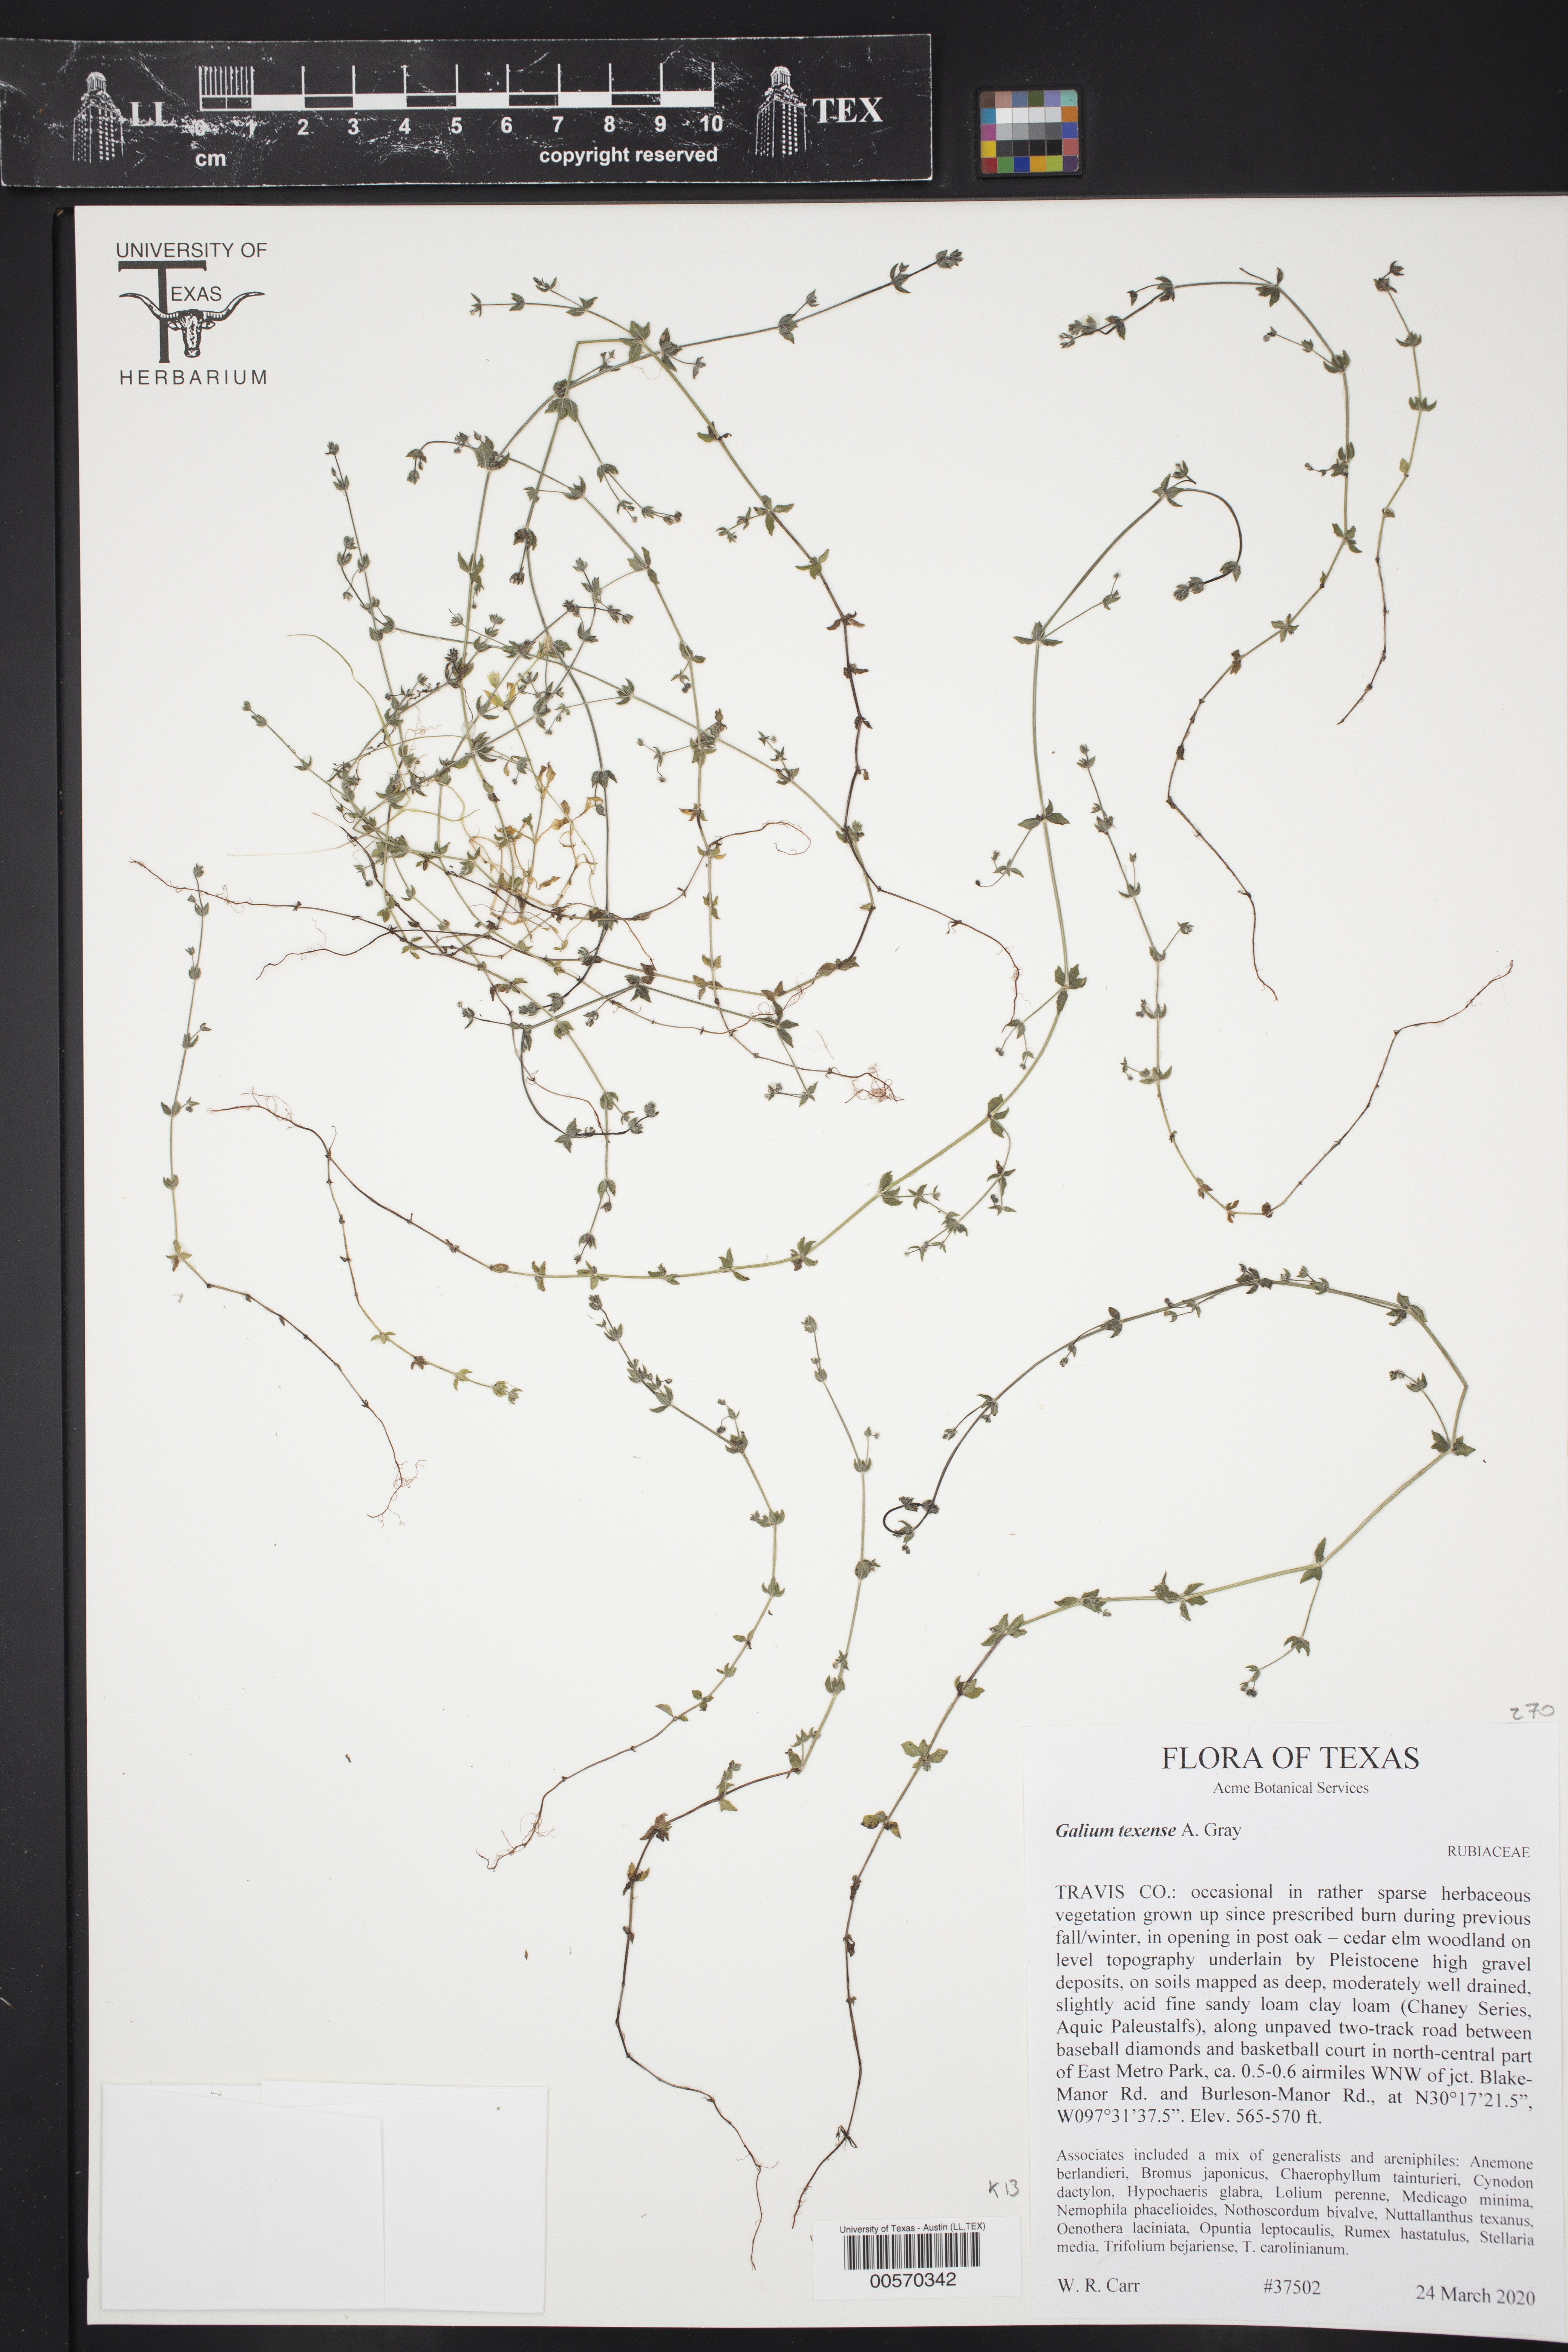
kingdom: Plantae
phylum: Tracheophyta
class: Magnoliopsida
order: Gentianales
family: Rubiaceae
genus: Galium
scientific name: Galium texense
